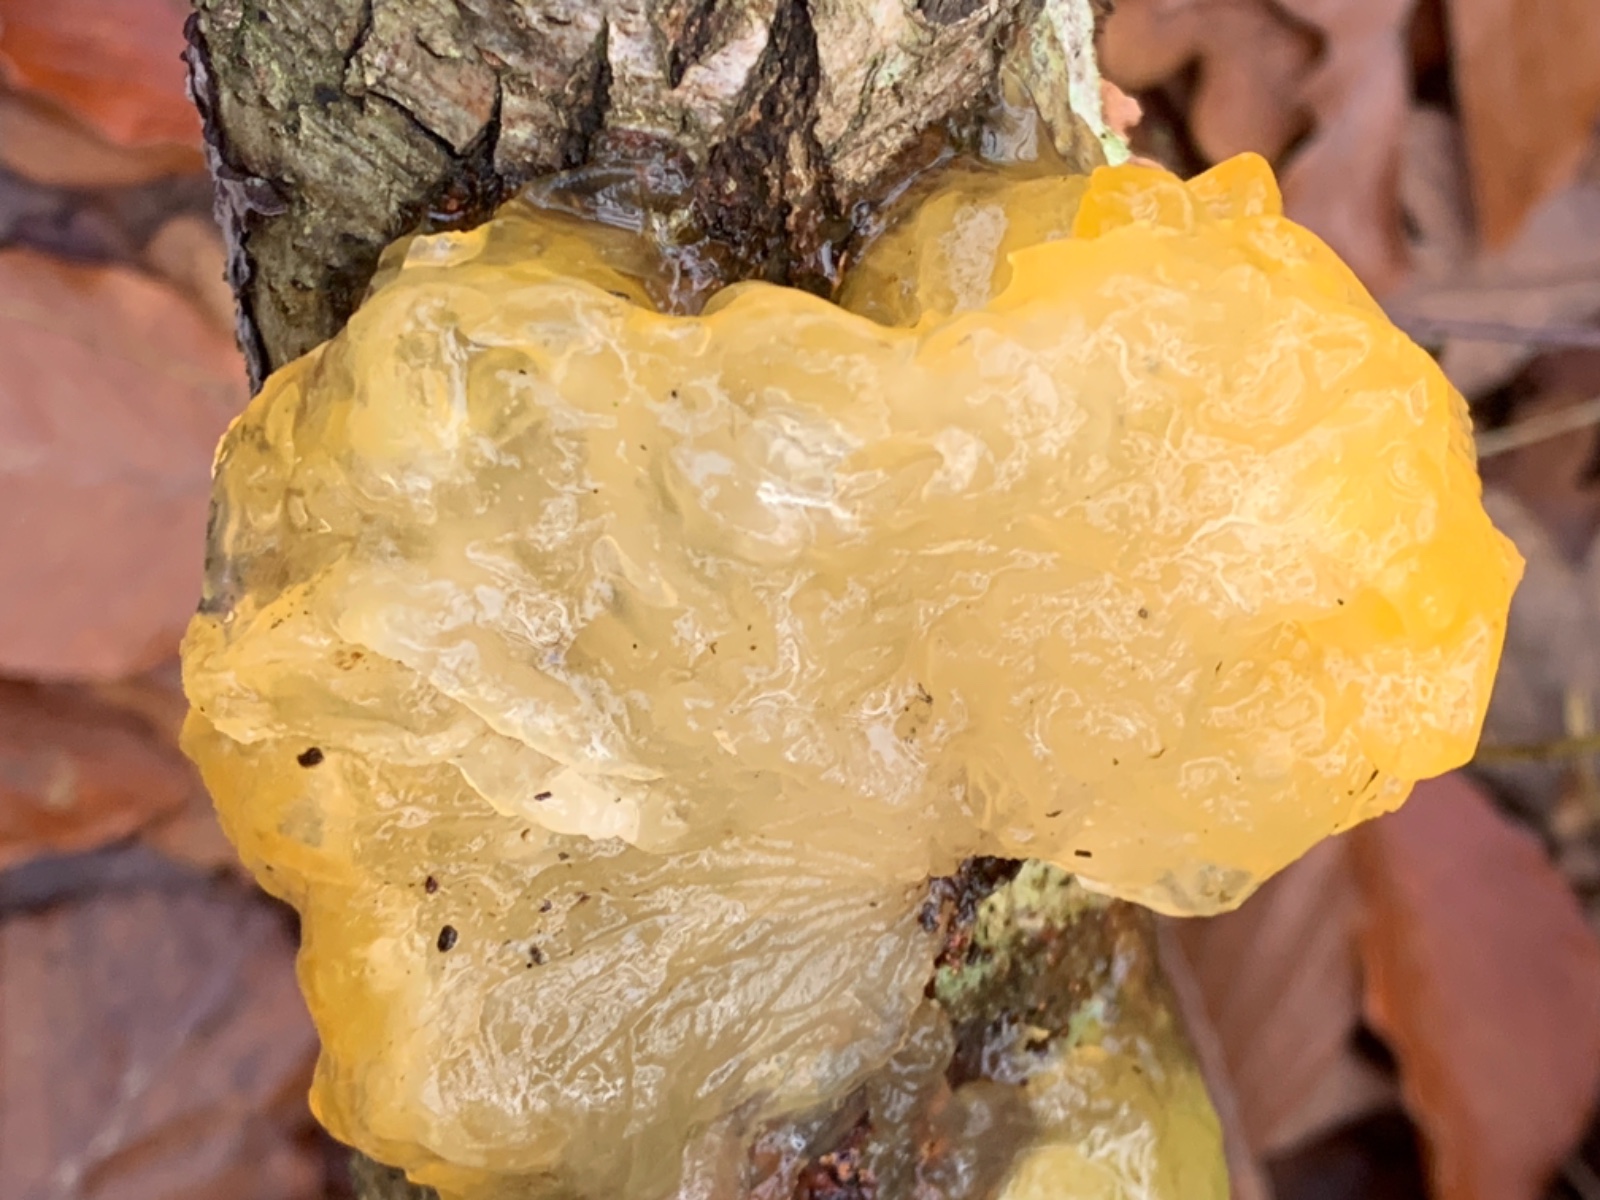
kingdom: Fungi
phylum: Basidiomycota
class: Tremellomycetes
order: Tremellales
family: Tremellaceae
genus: Tremella
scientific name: Tremella mesenterica
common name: gul bævresvamp
